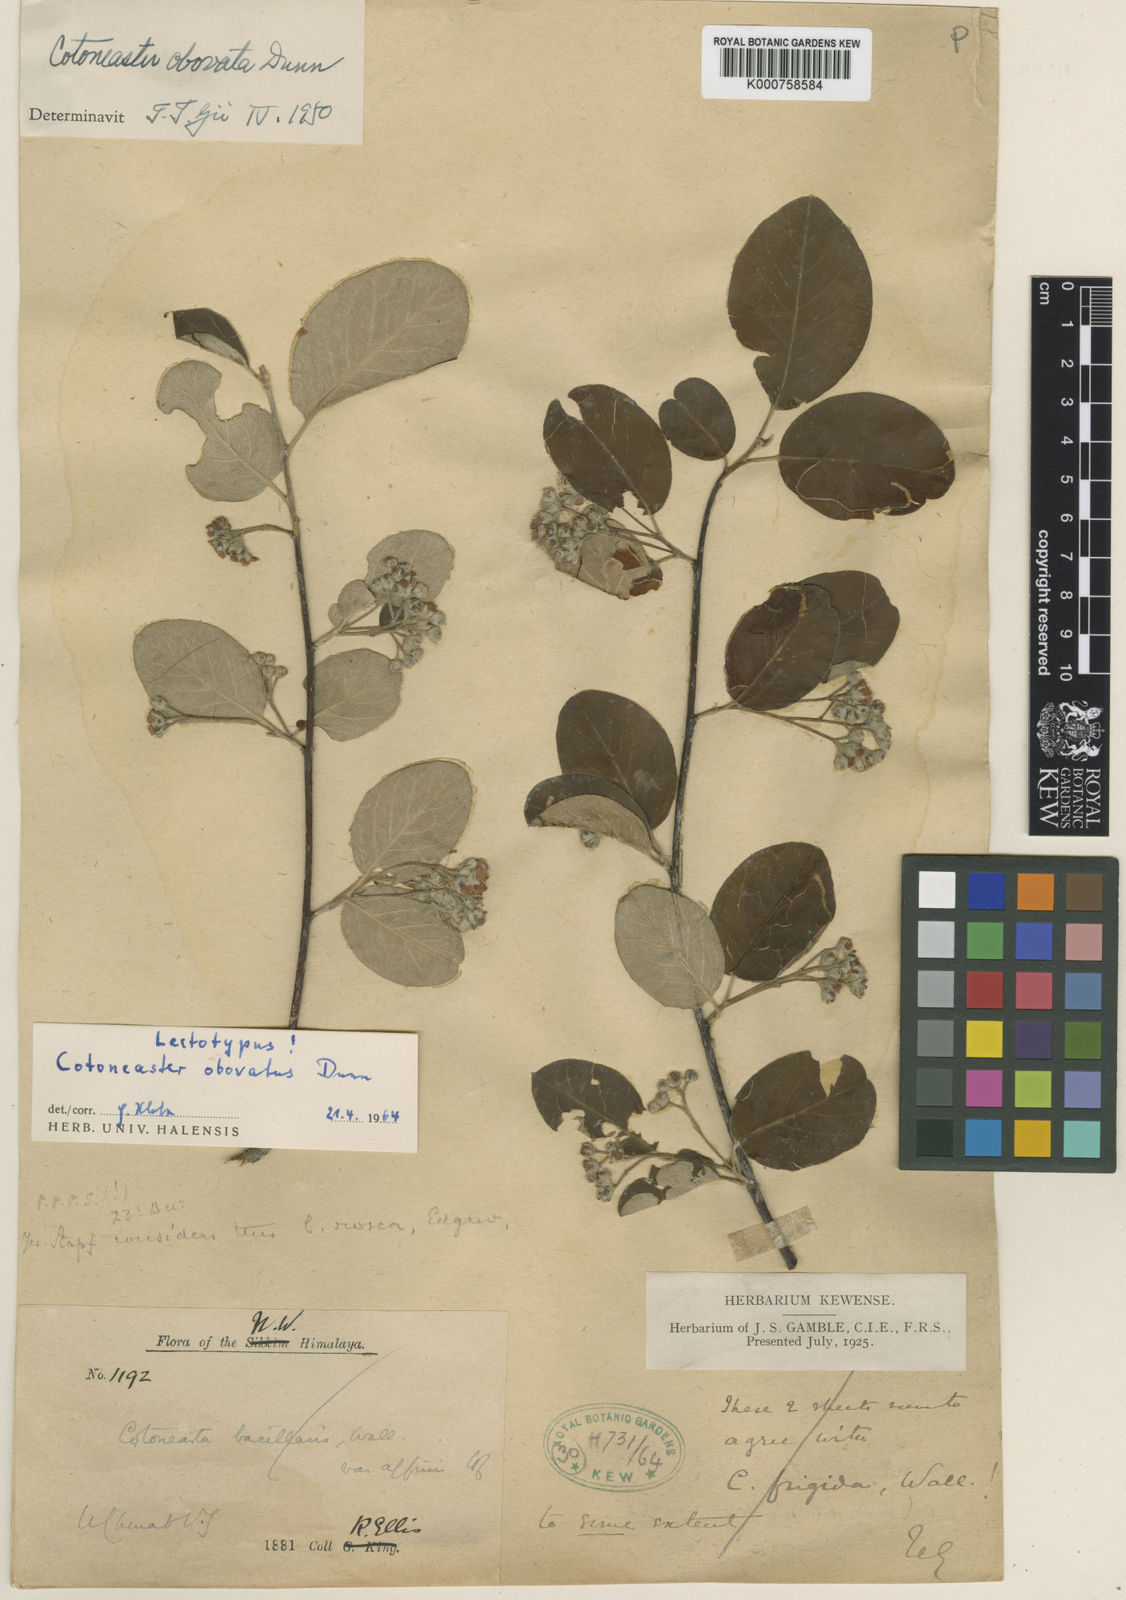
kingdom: Plantae
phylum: Tracheophyta
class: Magnoliopsida
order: Rosales
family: Rosaceae
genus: Cotoneaster
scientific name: Cotoneaster obovatus
